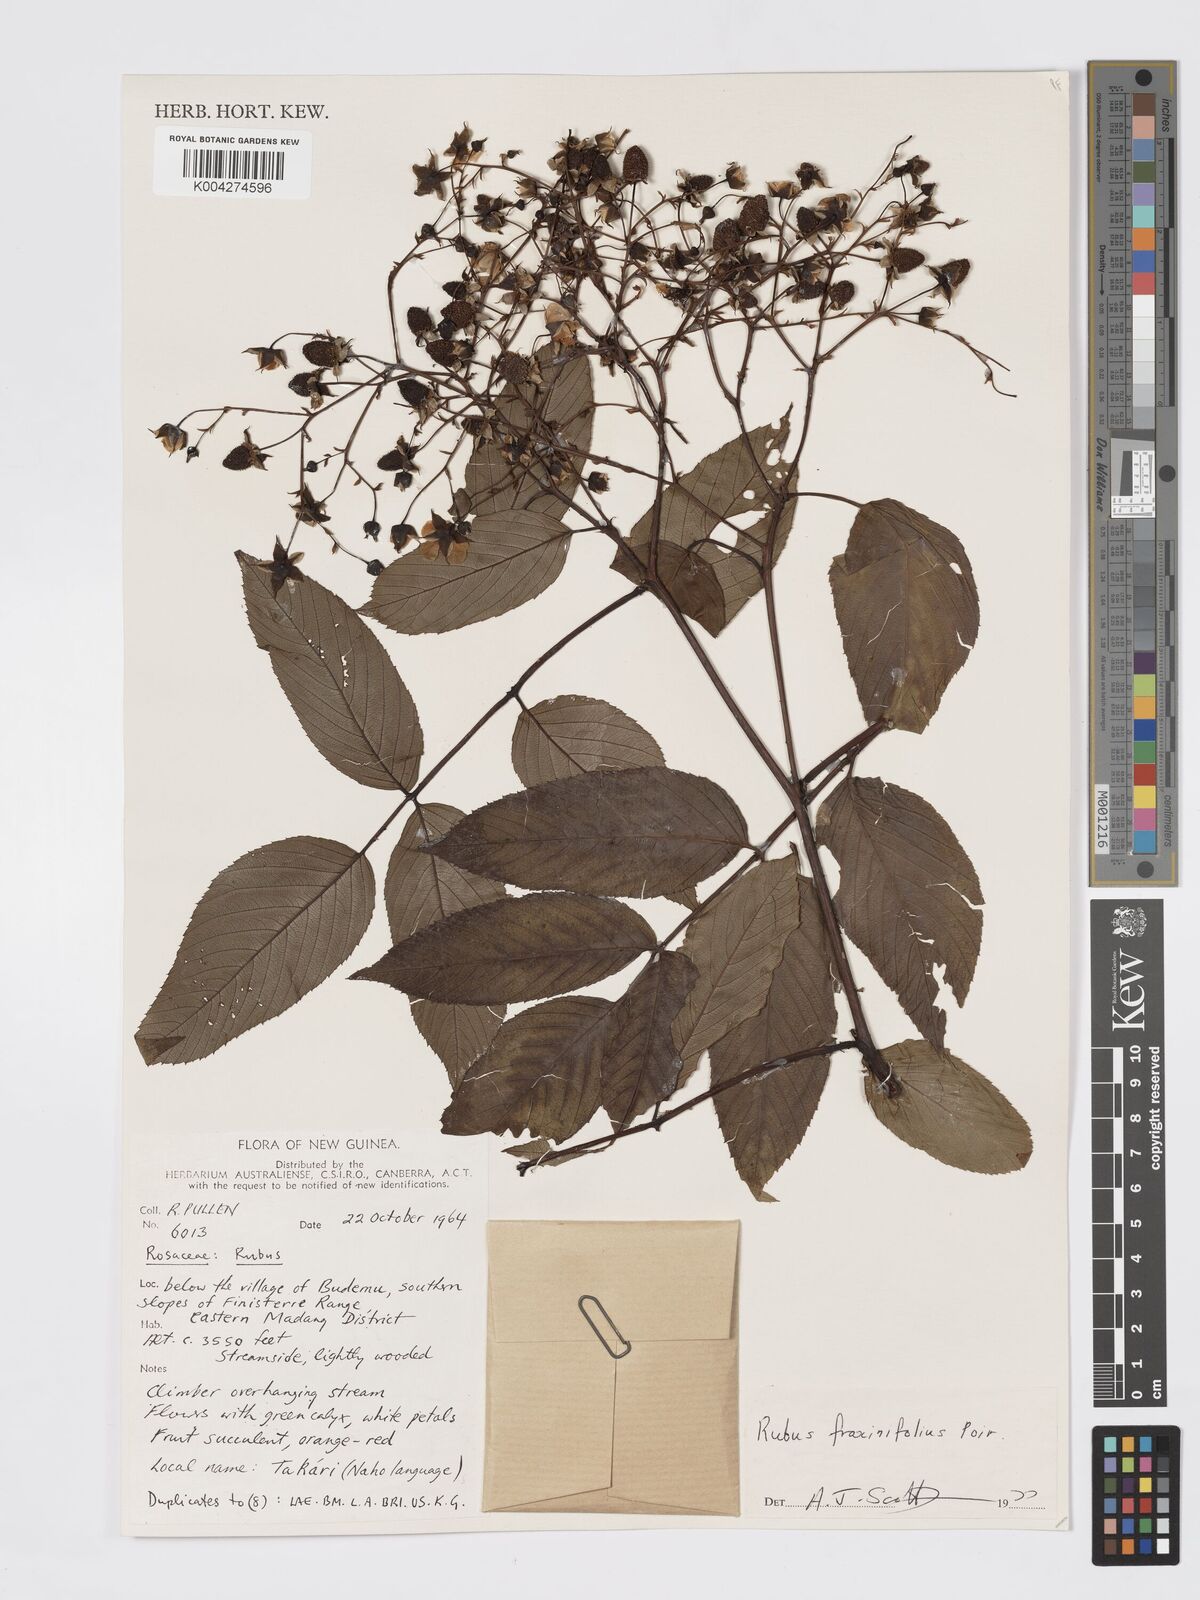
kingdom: Plantae
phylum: Tracheophyta
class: Magnoliopsida
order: Rosales
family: Rosaceae
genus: Rubus
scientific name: Rubus fraxinifolius
